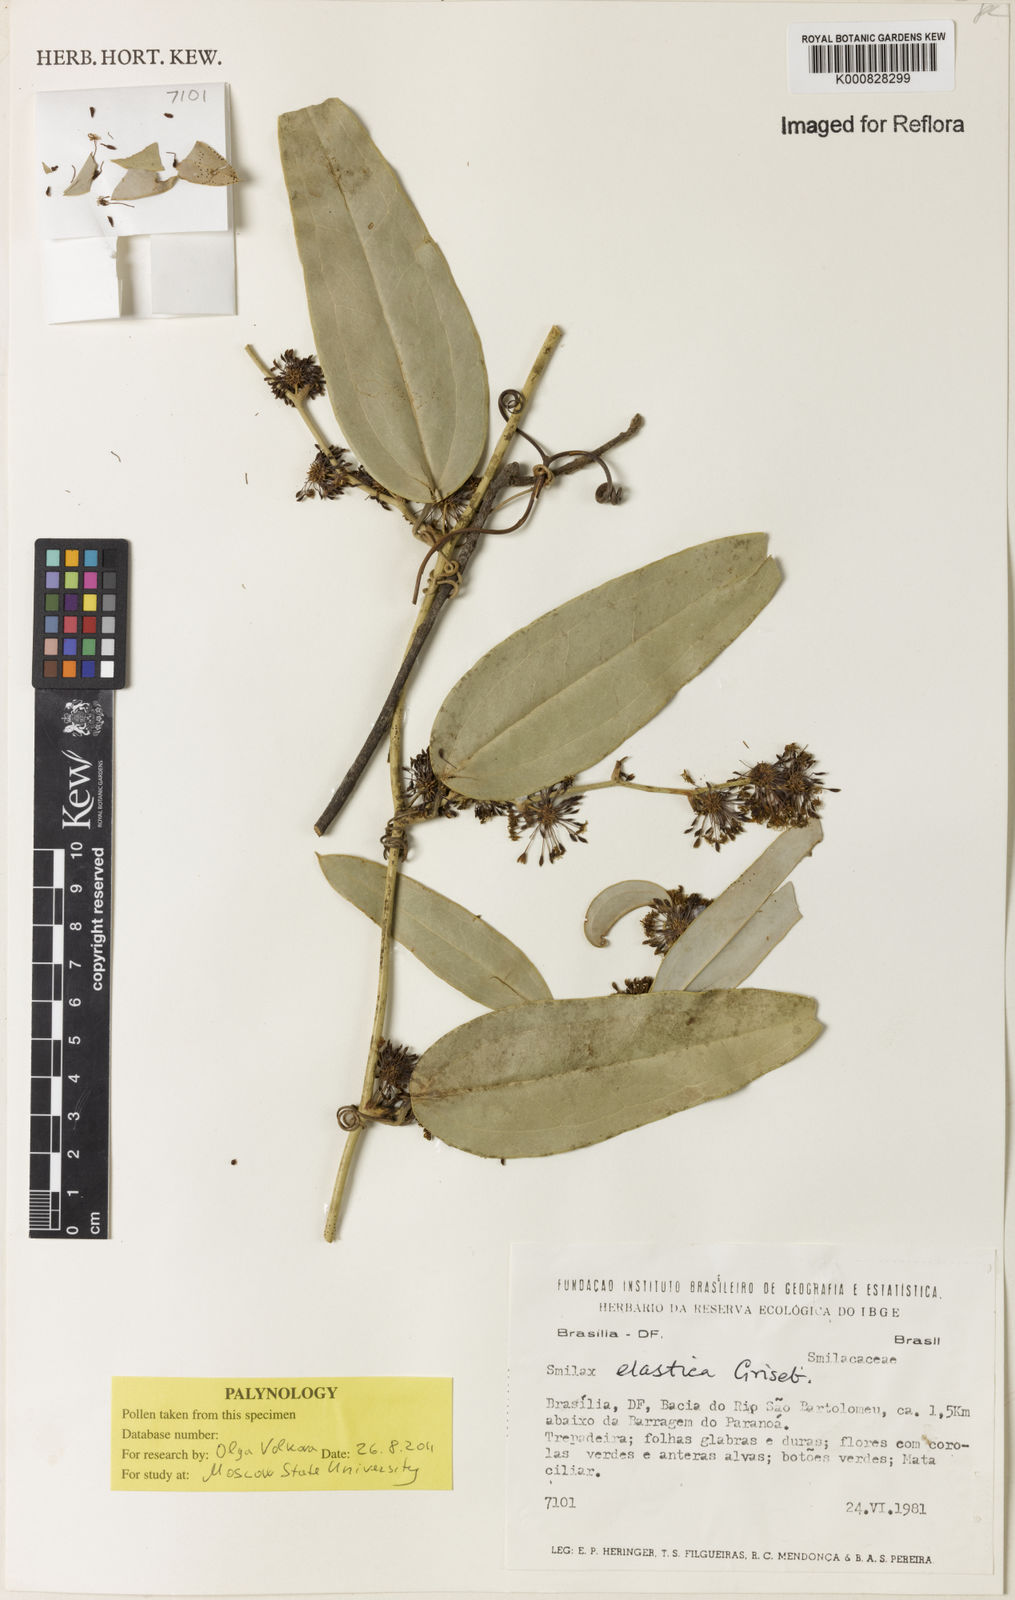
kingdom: Plantae
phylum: Tracheophyta
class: Liliopsida
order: Liliales
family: Smilacaceae
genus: Smilax
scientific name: Smilax elastica
